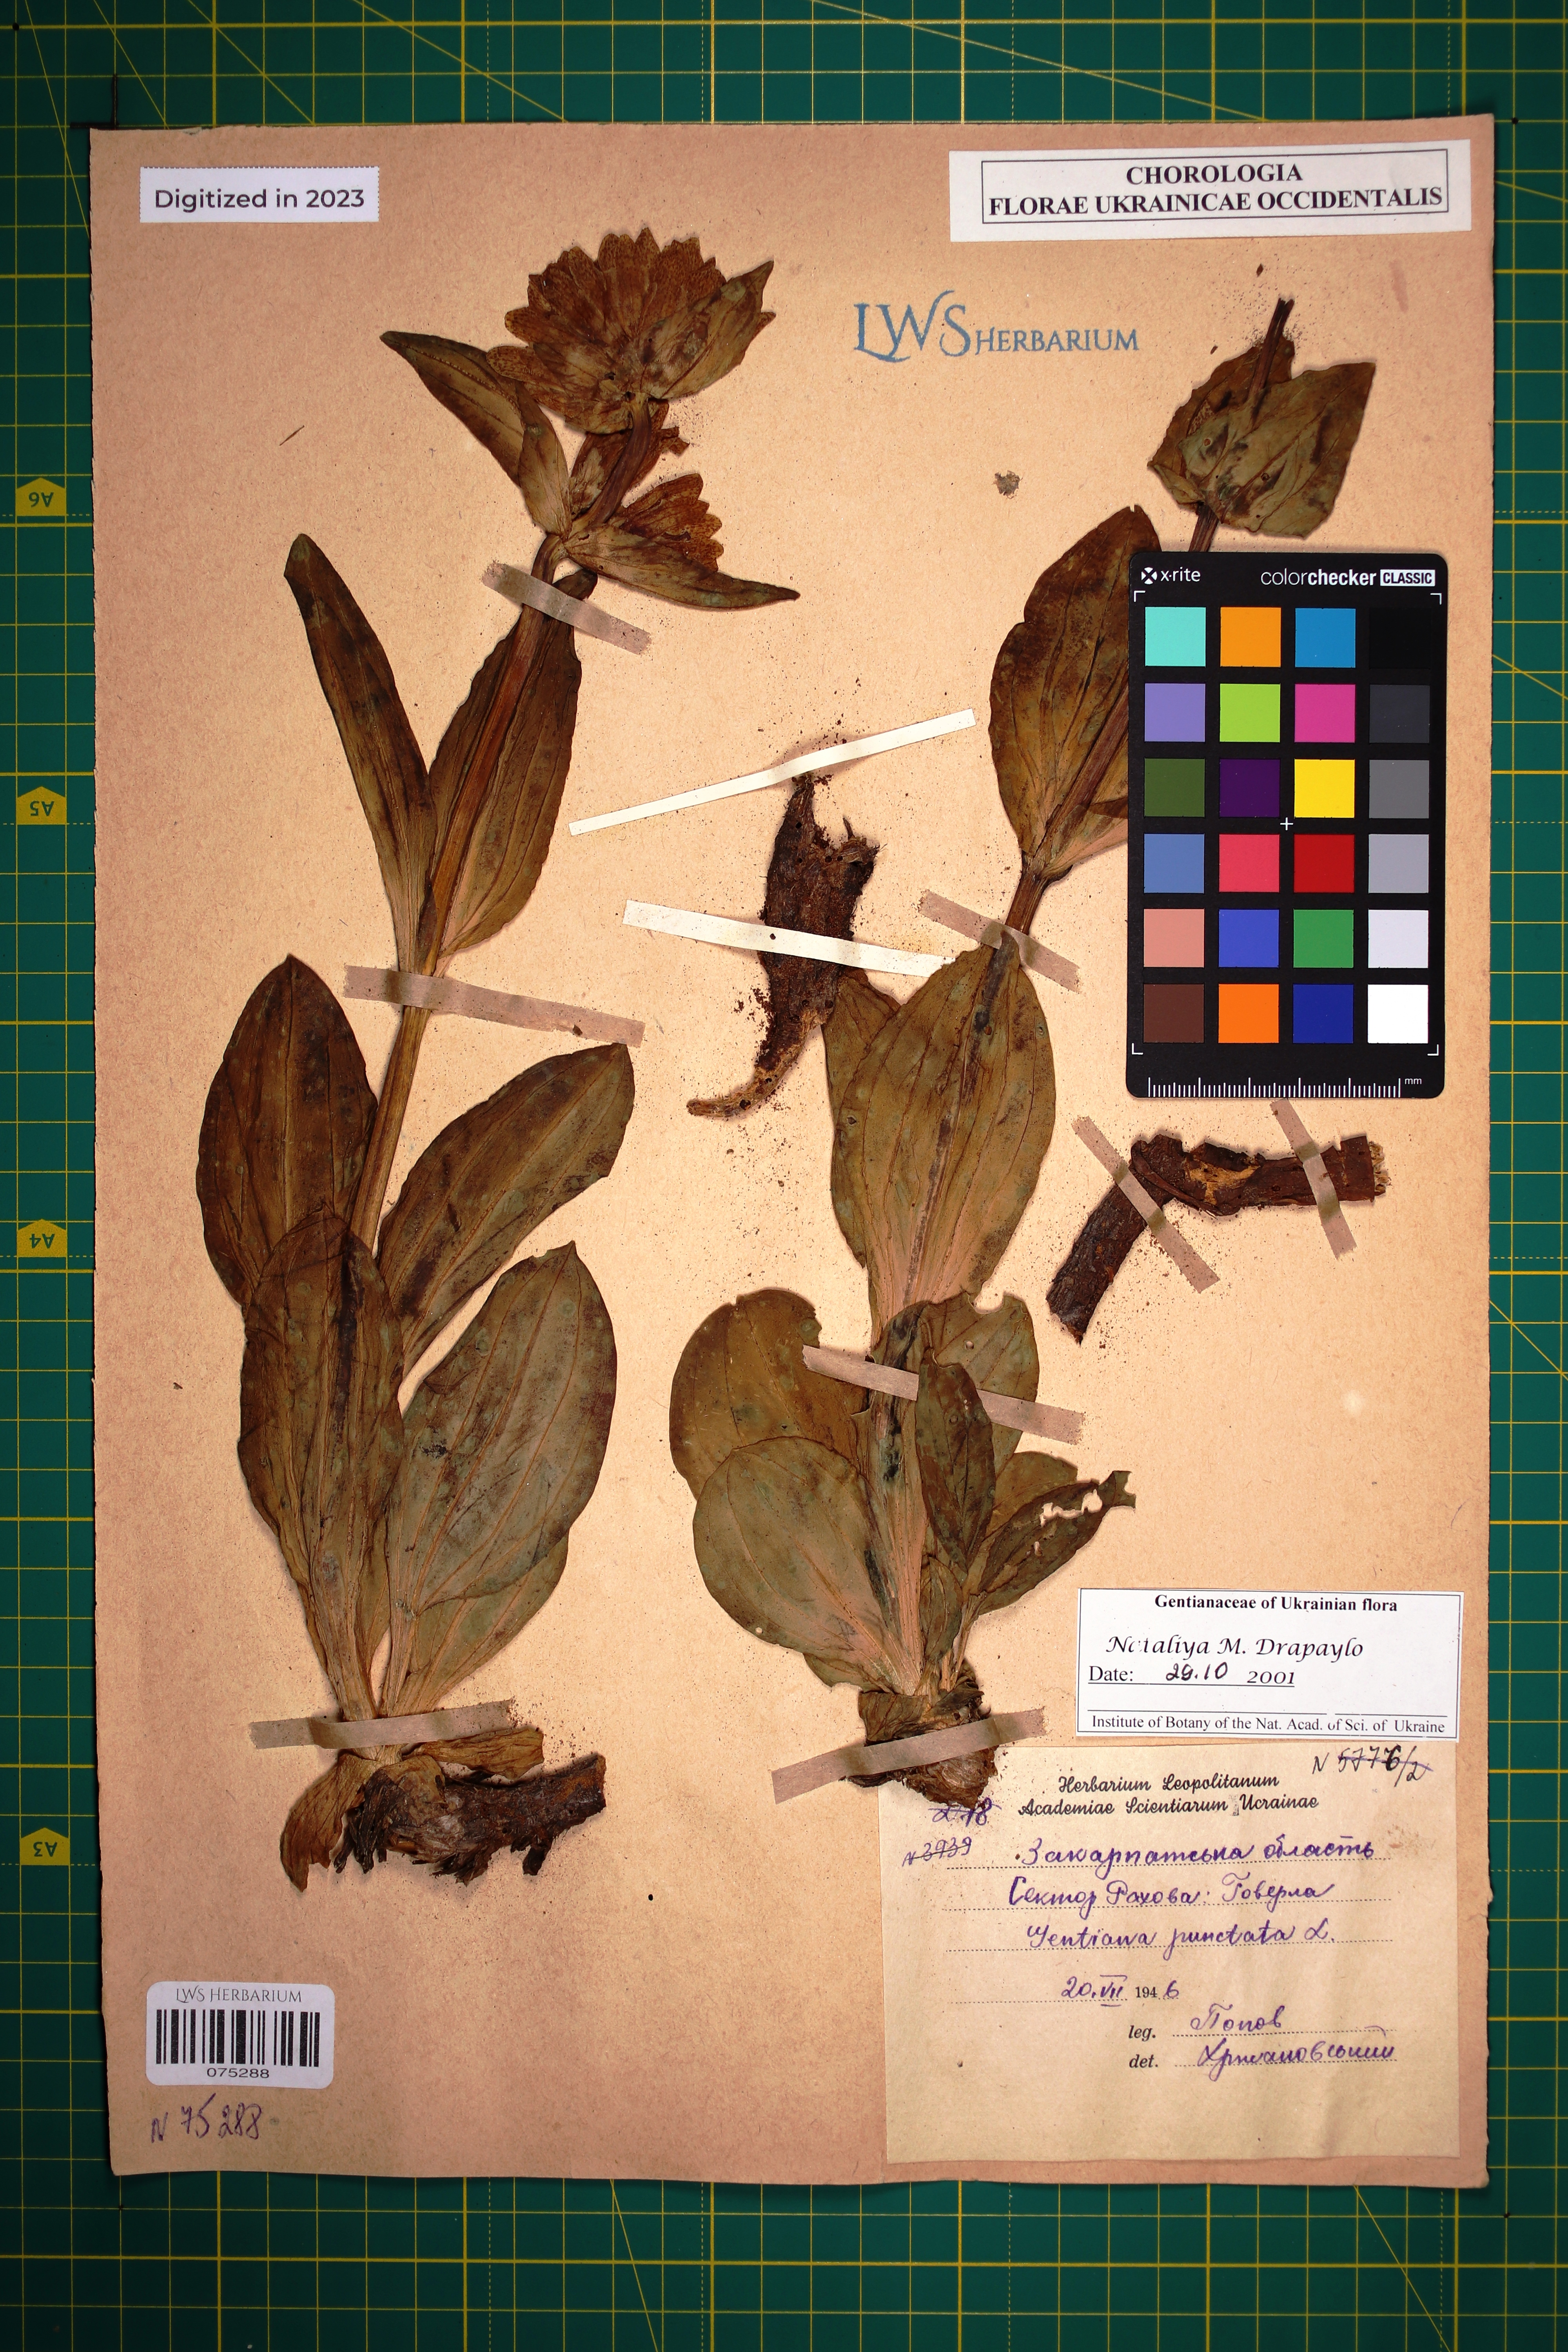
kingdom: Plantae
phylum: Tracheophyta
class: Magnoliopsida
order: Gentianales
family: Gentianaceae
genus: Gentiana
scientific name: Gentiana punctata
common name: Spotted gentian
